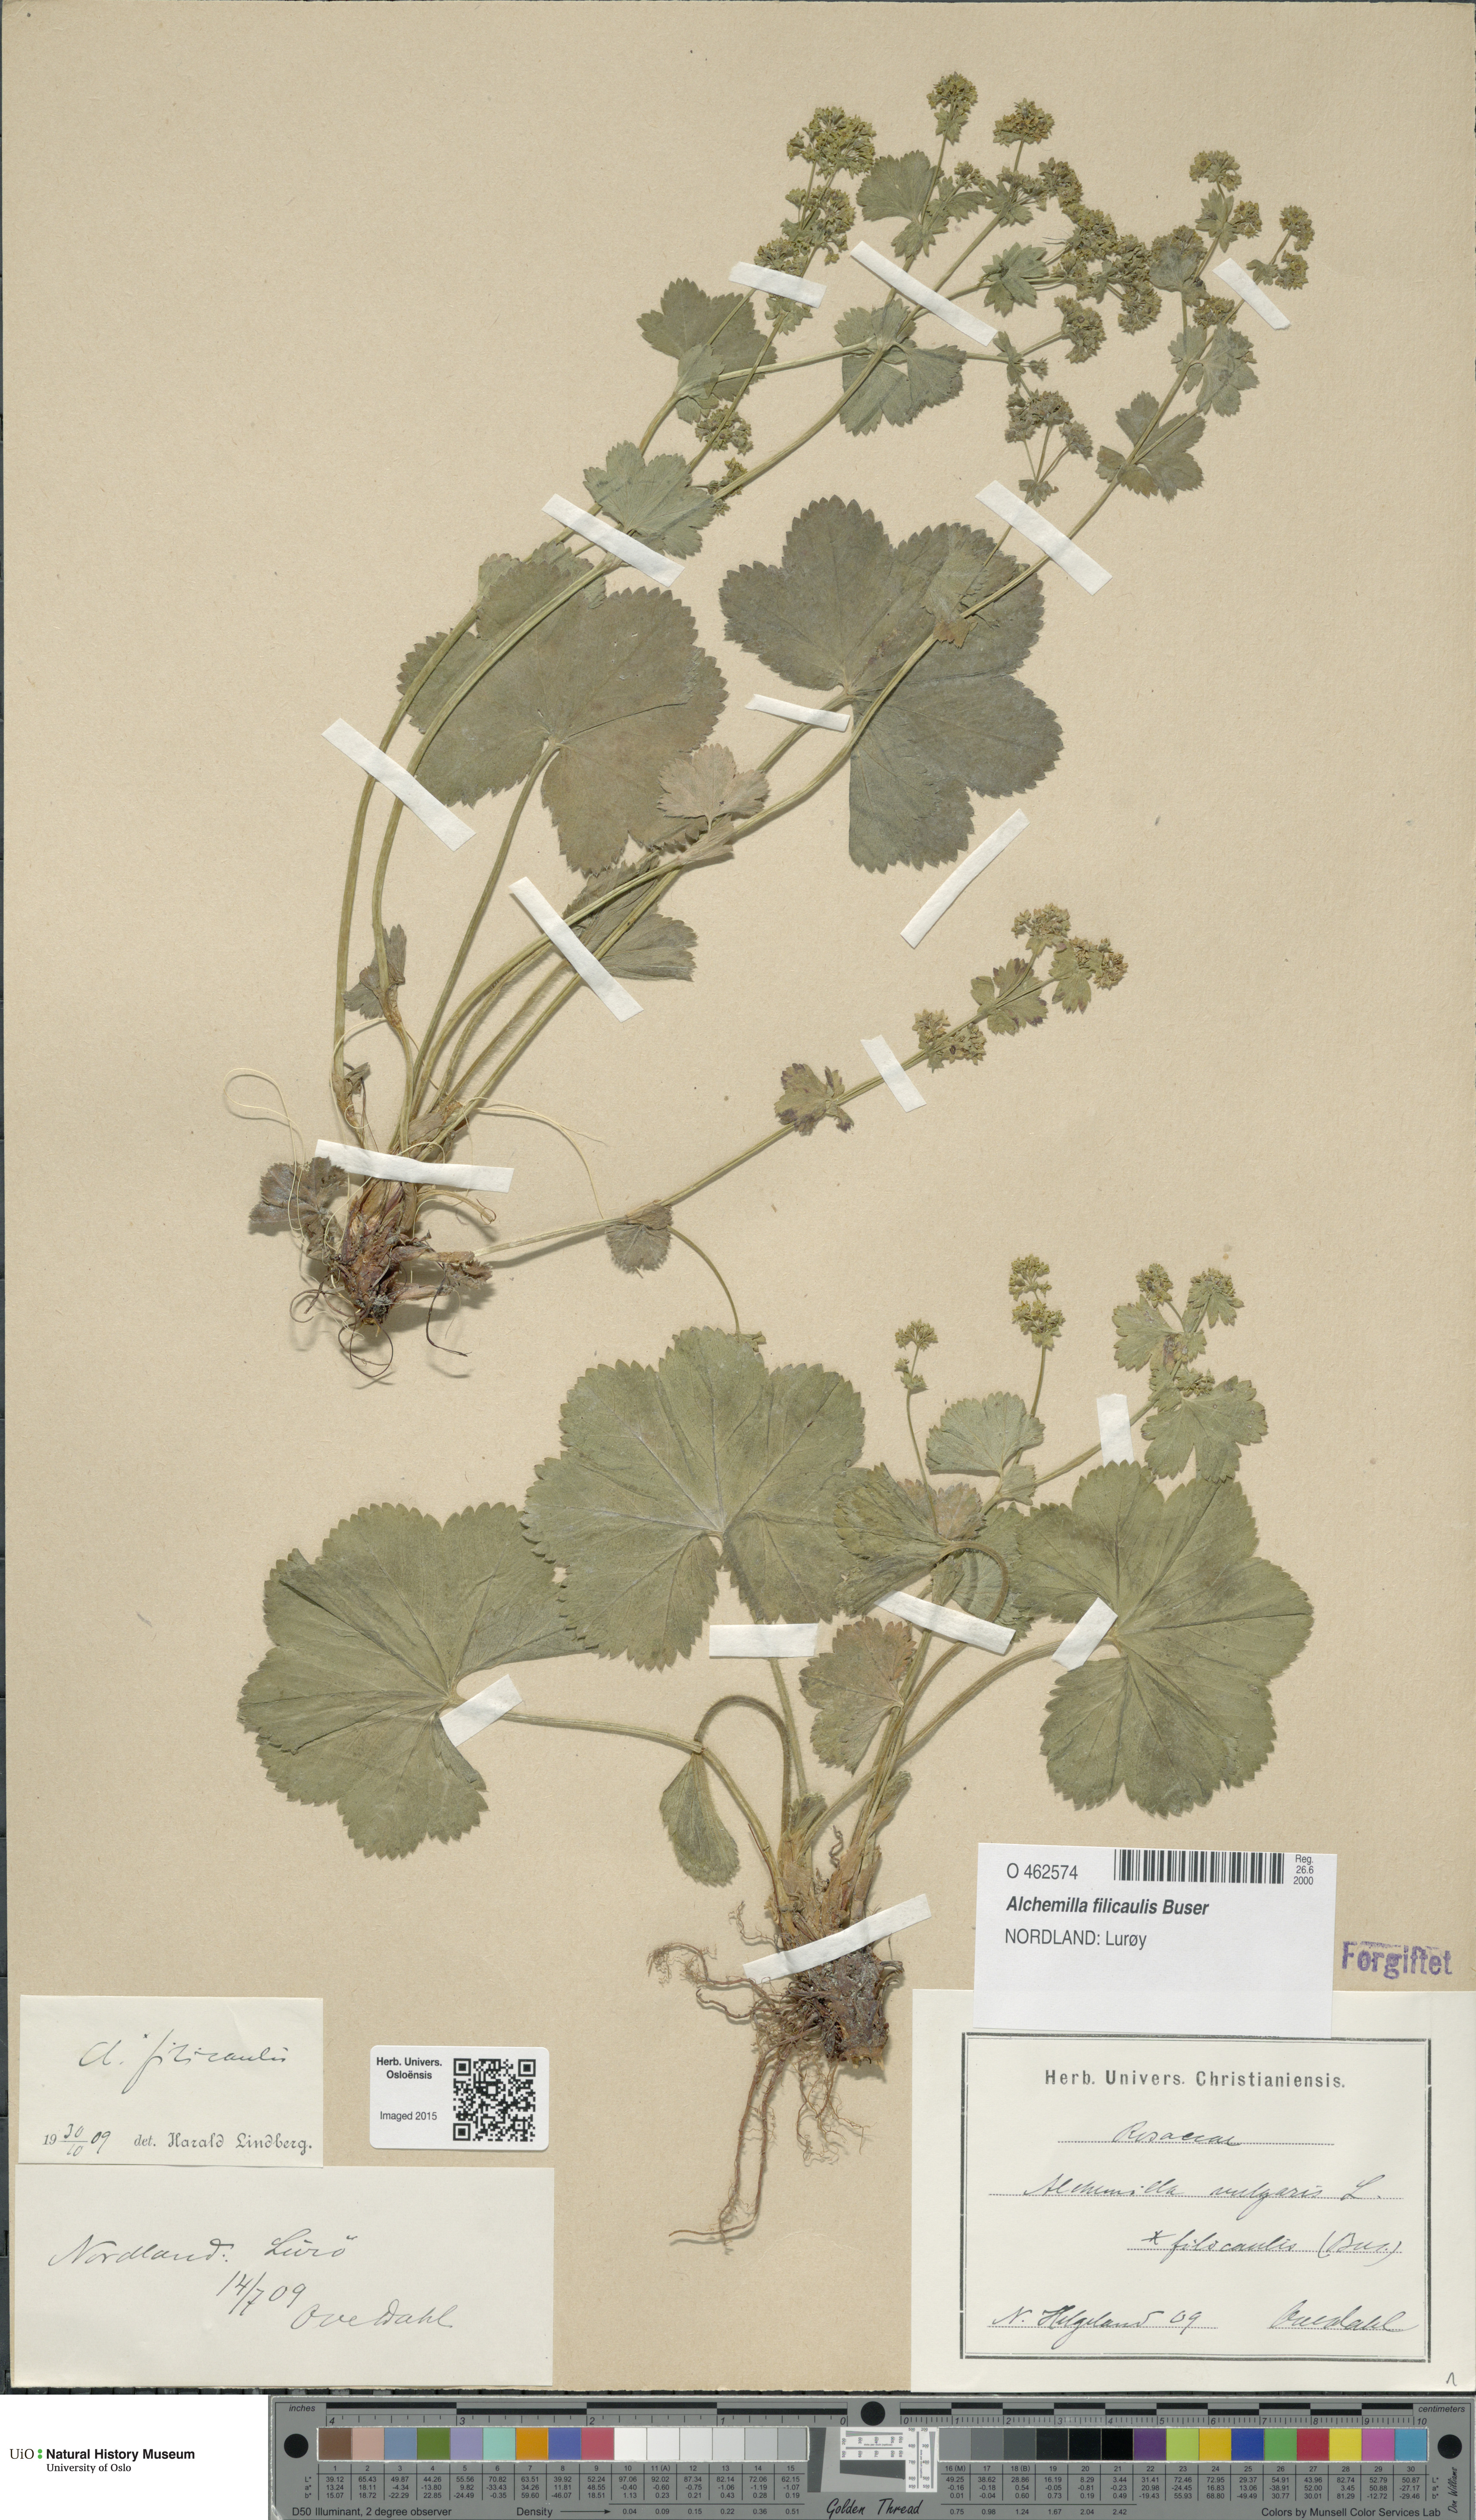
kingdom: Plantae
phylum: Tracheophyta
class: Magnoliopsida
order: Rosales
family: Rosaceae
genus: Alchemilla
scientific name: Alchemilla filicaulis
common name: Hairy lady's-mantle
